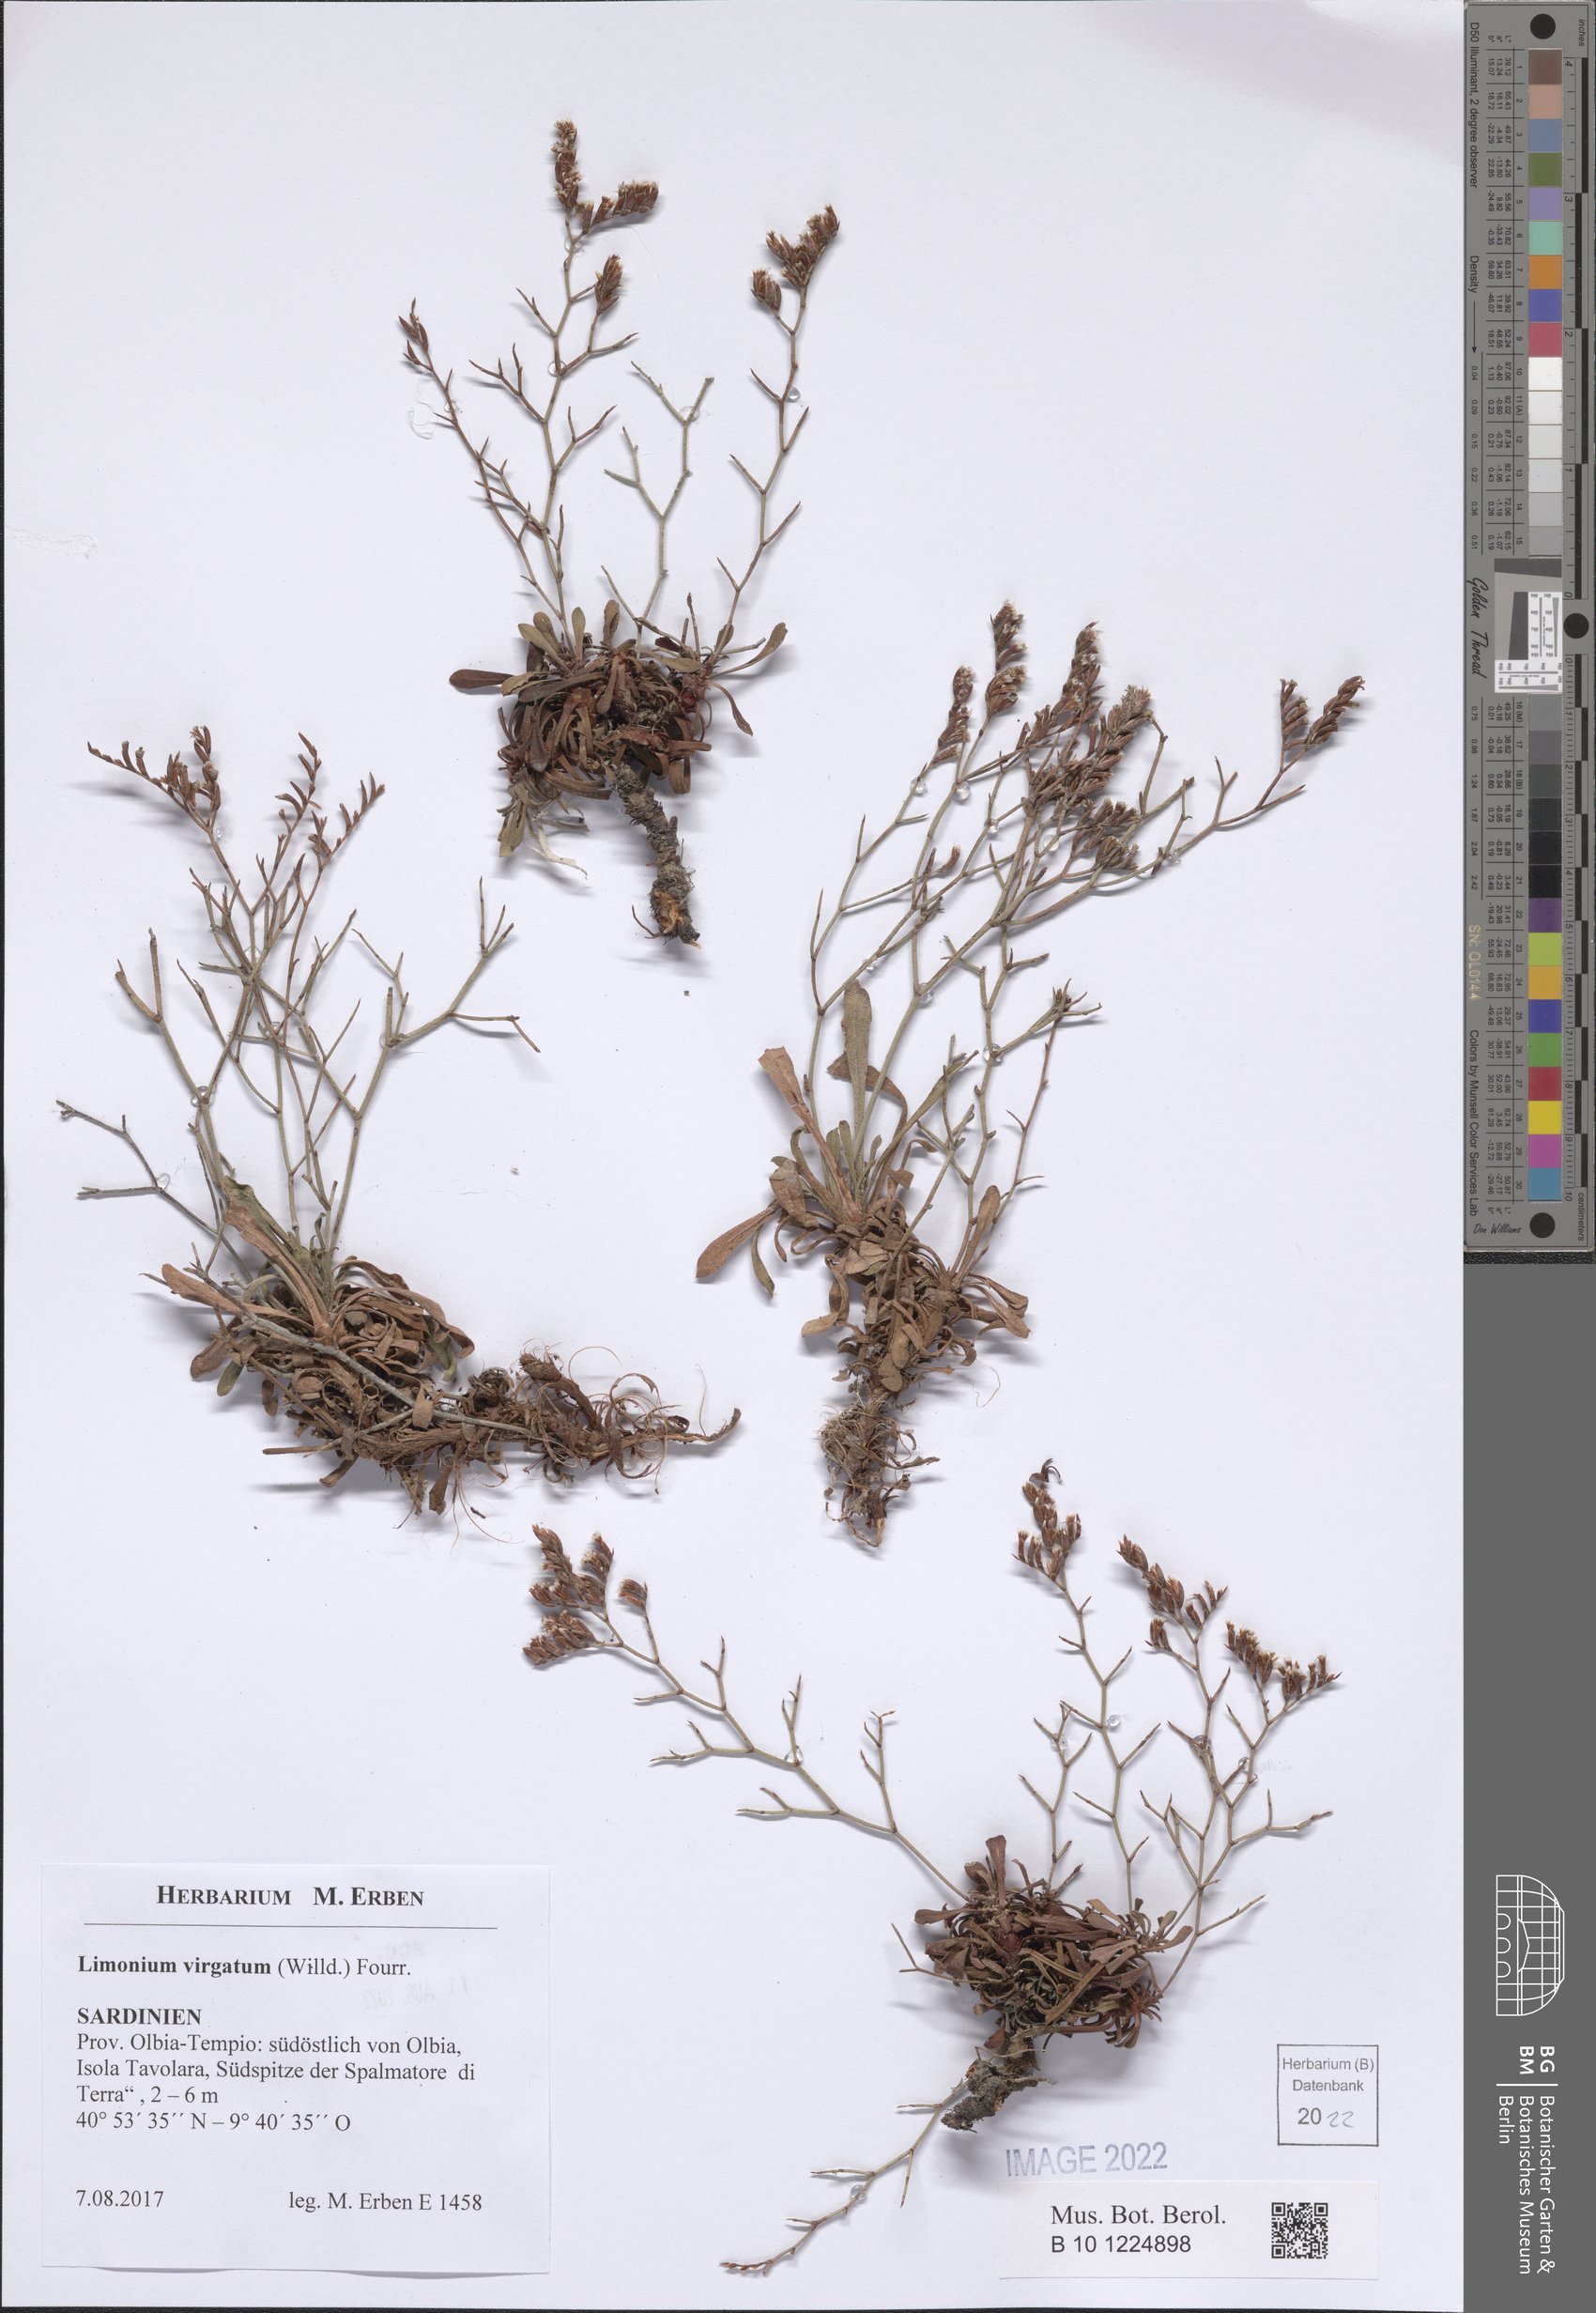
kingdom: Plantae
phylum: Tracheophyta
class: Magnoliopsida
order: Caryophyllales
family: Plumbaginaceae
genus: Limonium
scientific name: Limonium virgatum
